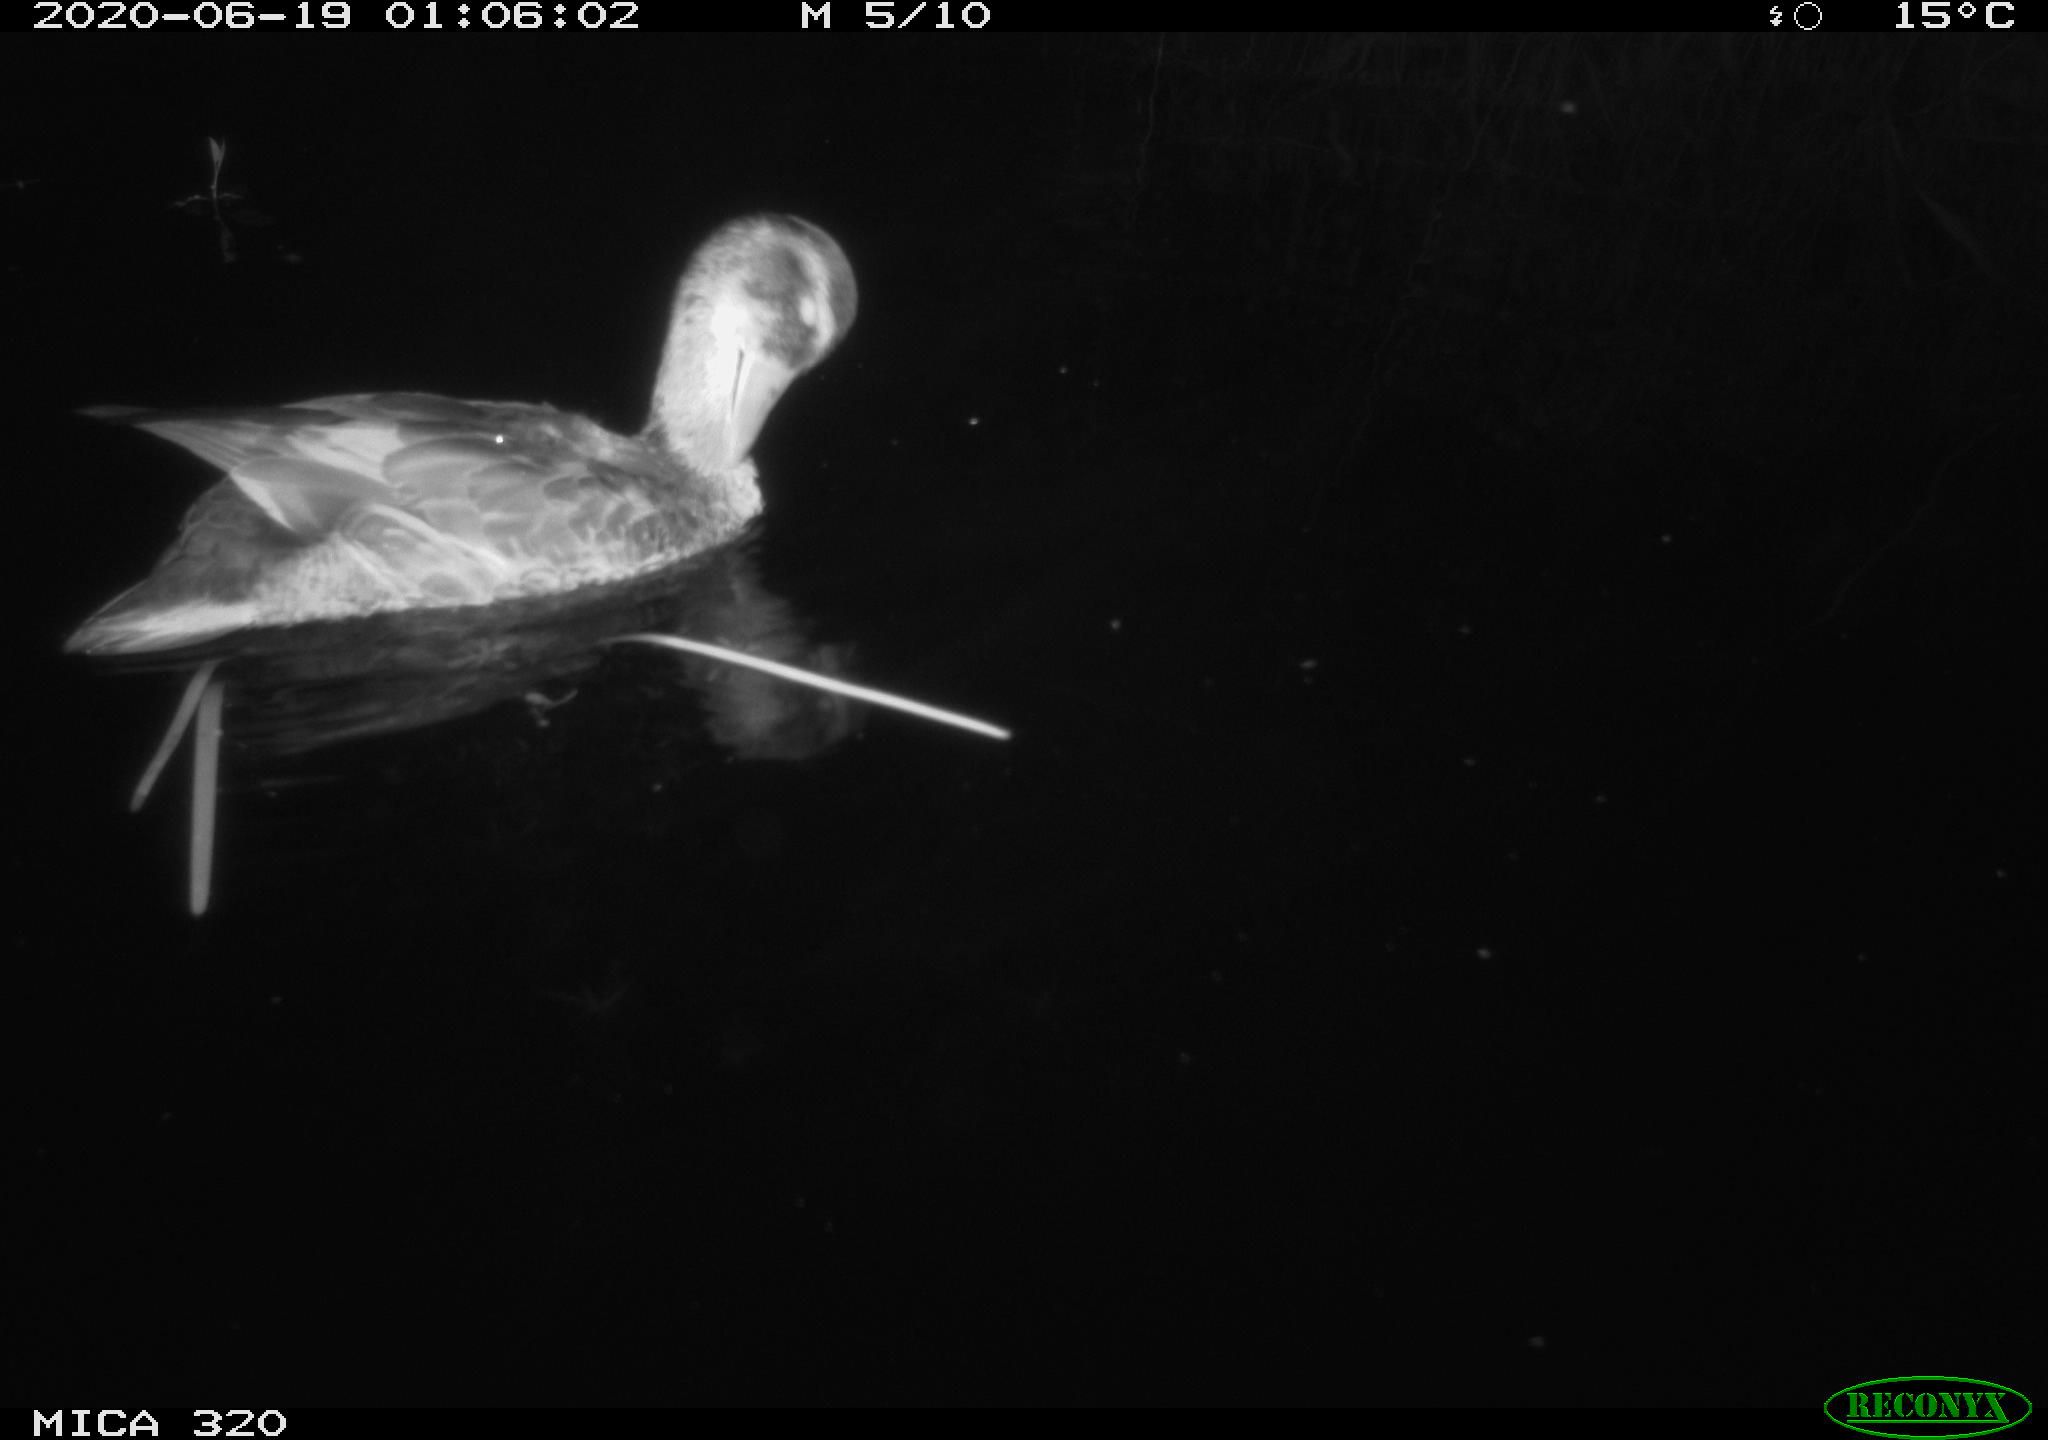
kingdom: Animalia
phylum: Chordata
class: Aves
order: Anseriformes
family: Anatidae
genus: Anas
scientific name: Anas platyrhynchos
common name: Mallard
